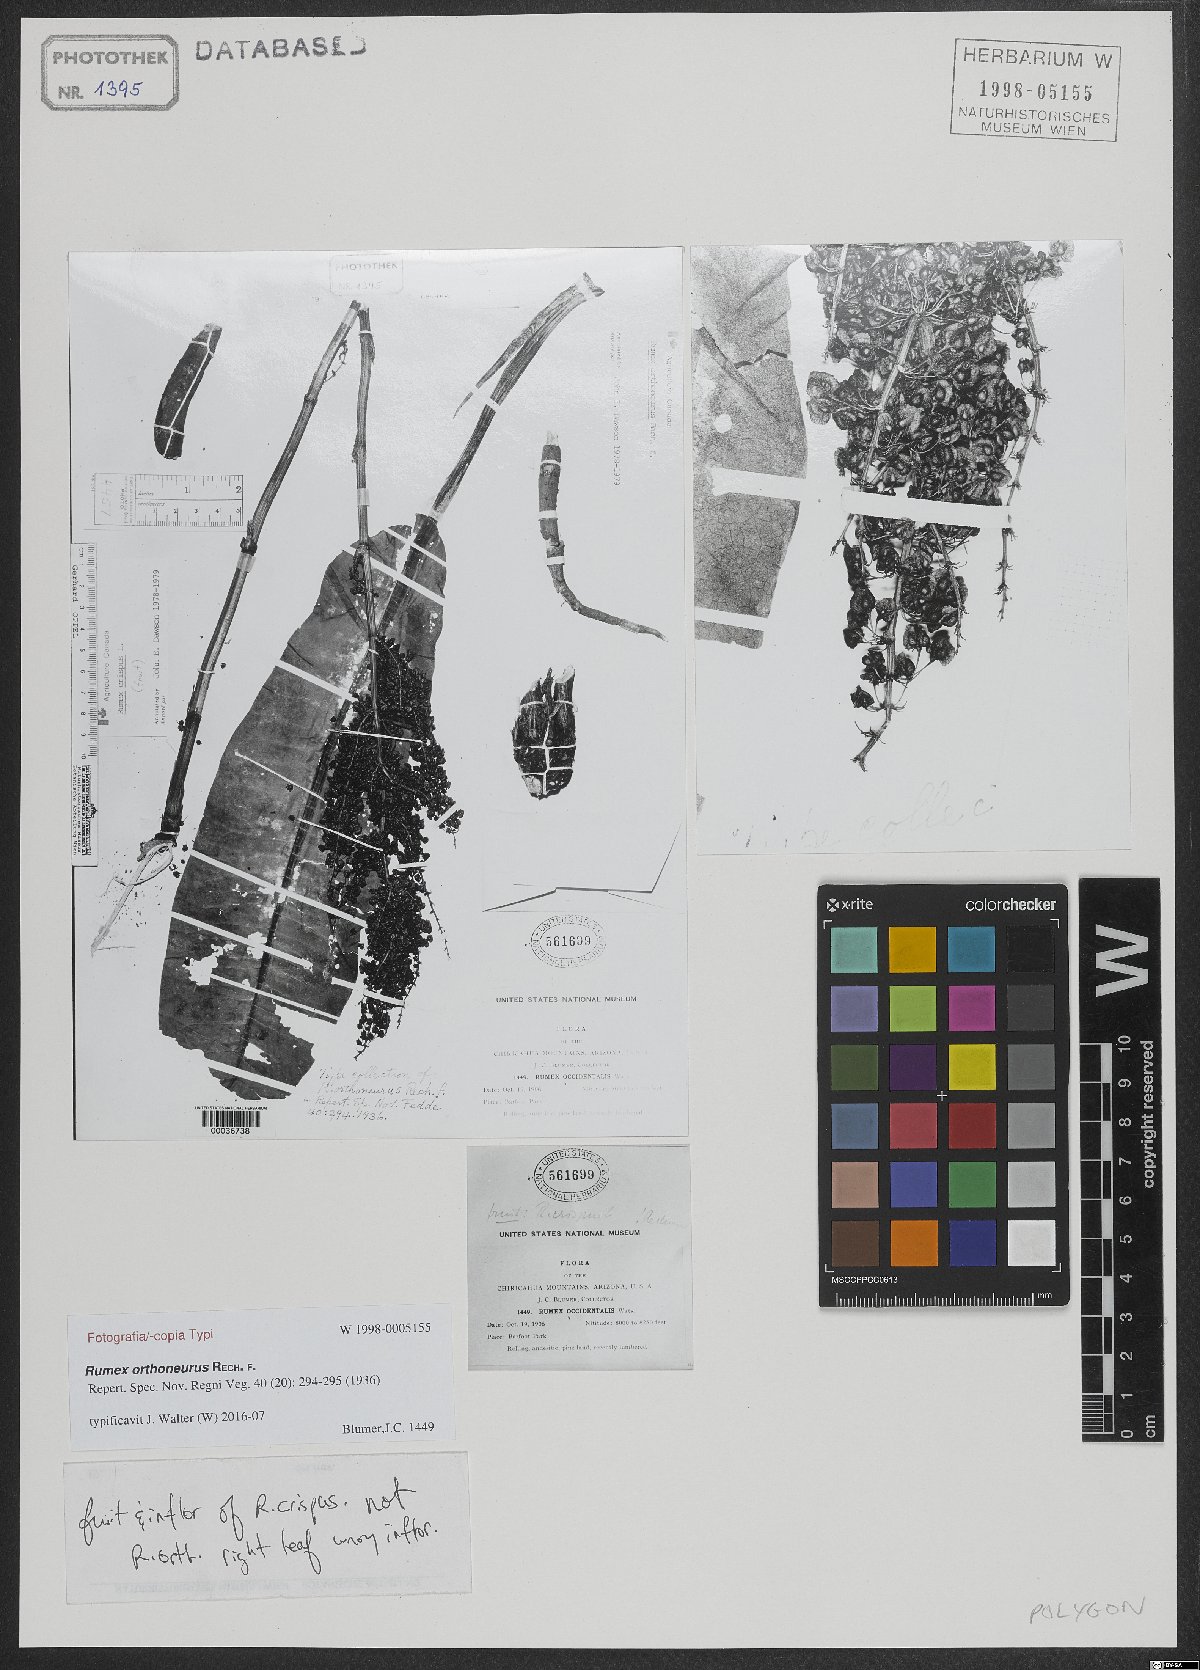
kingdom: Plantae
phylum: Tracheophyta
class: Magnoliopsida
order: Caryophyllales
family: Polygonaceae
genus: Rumex
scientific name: Rumex orthoneurus
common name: Chiricahua dock
